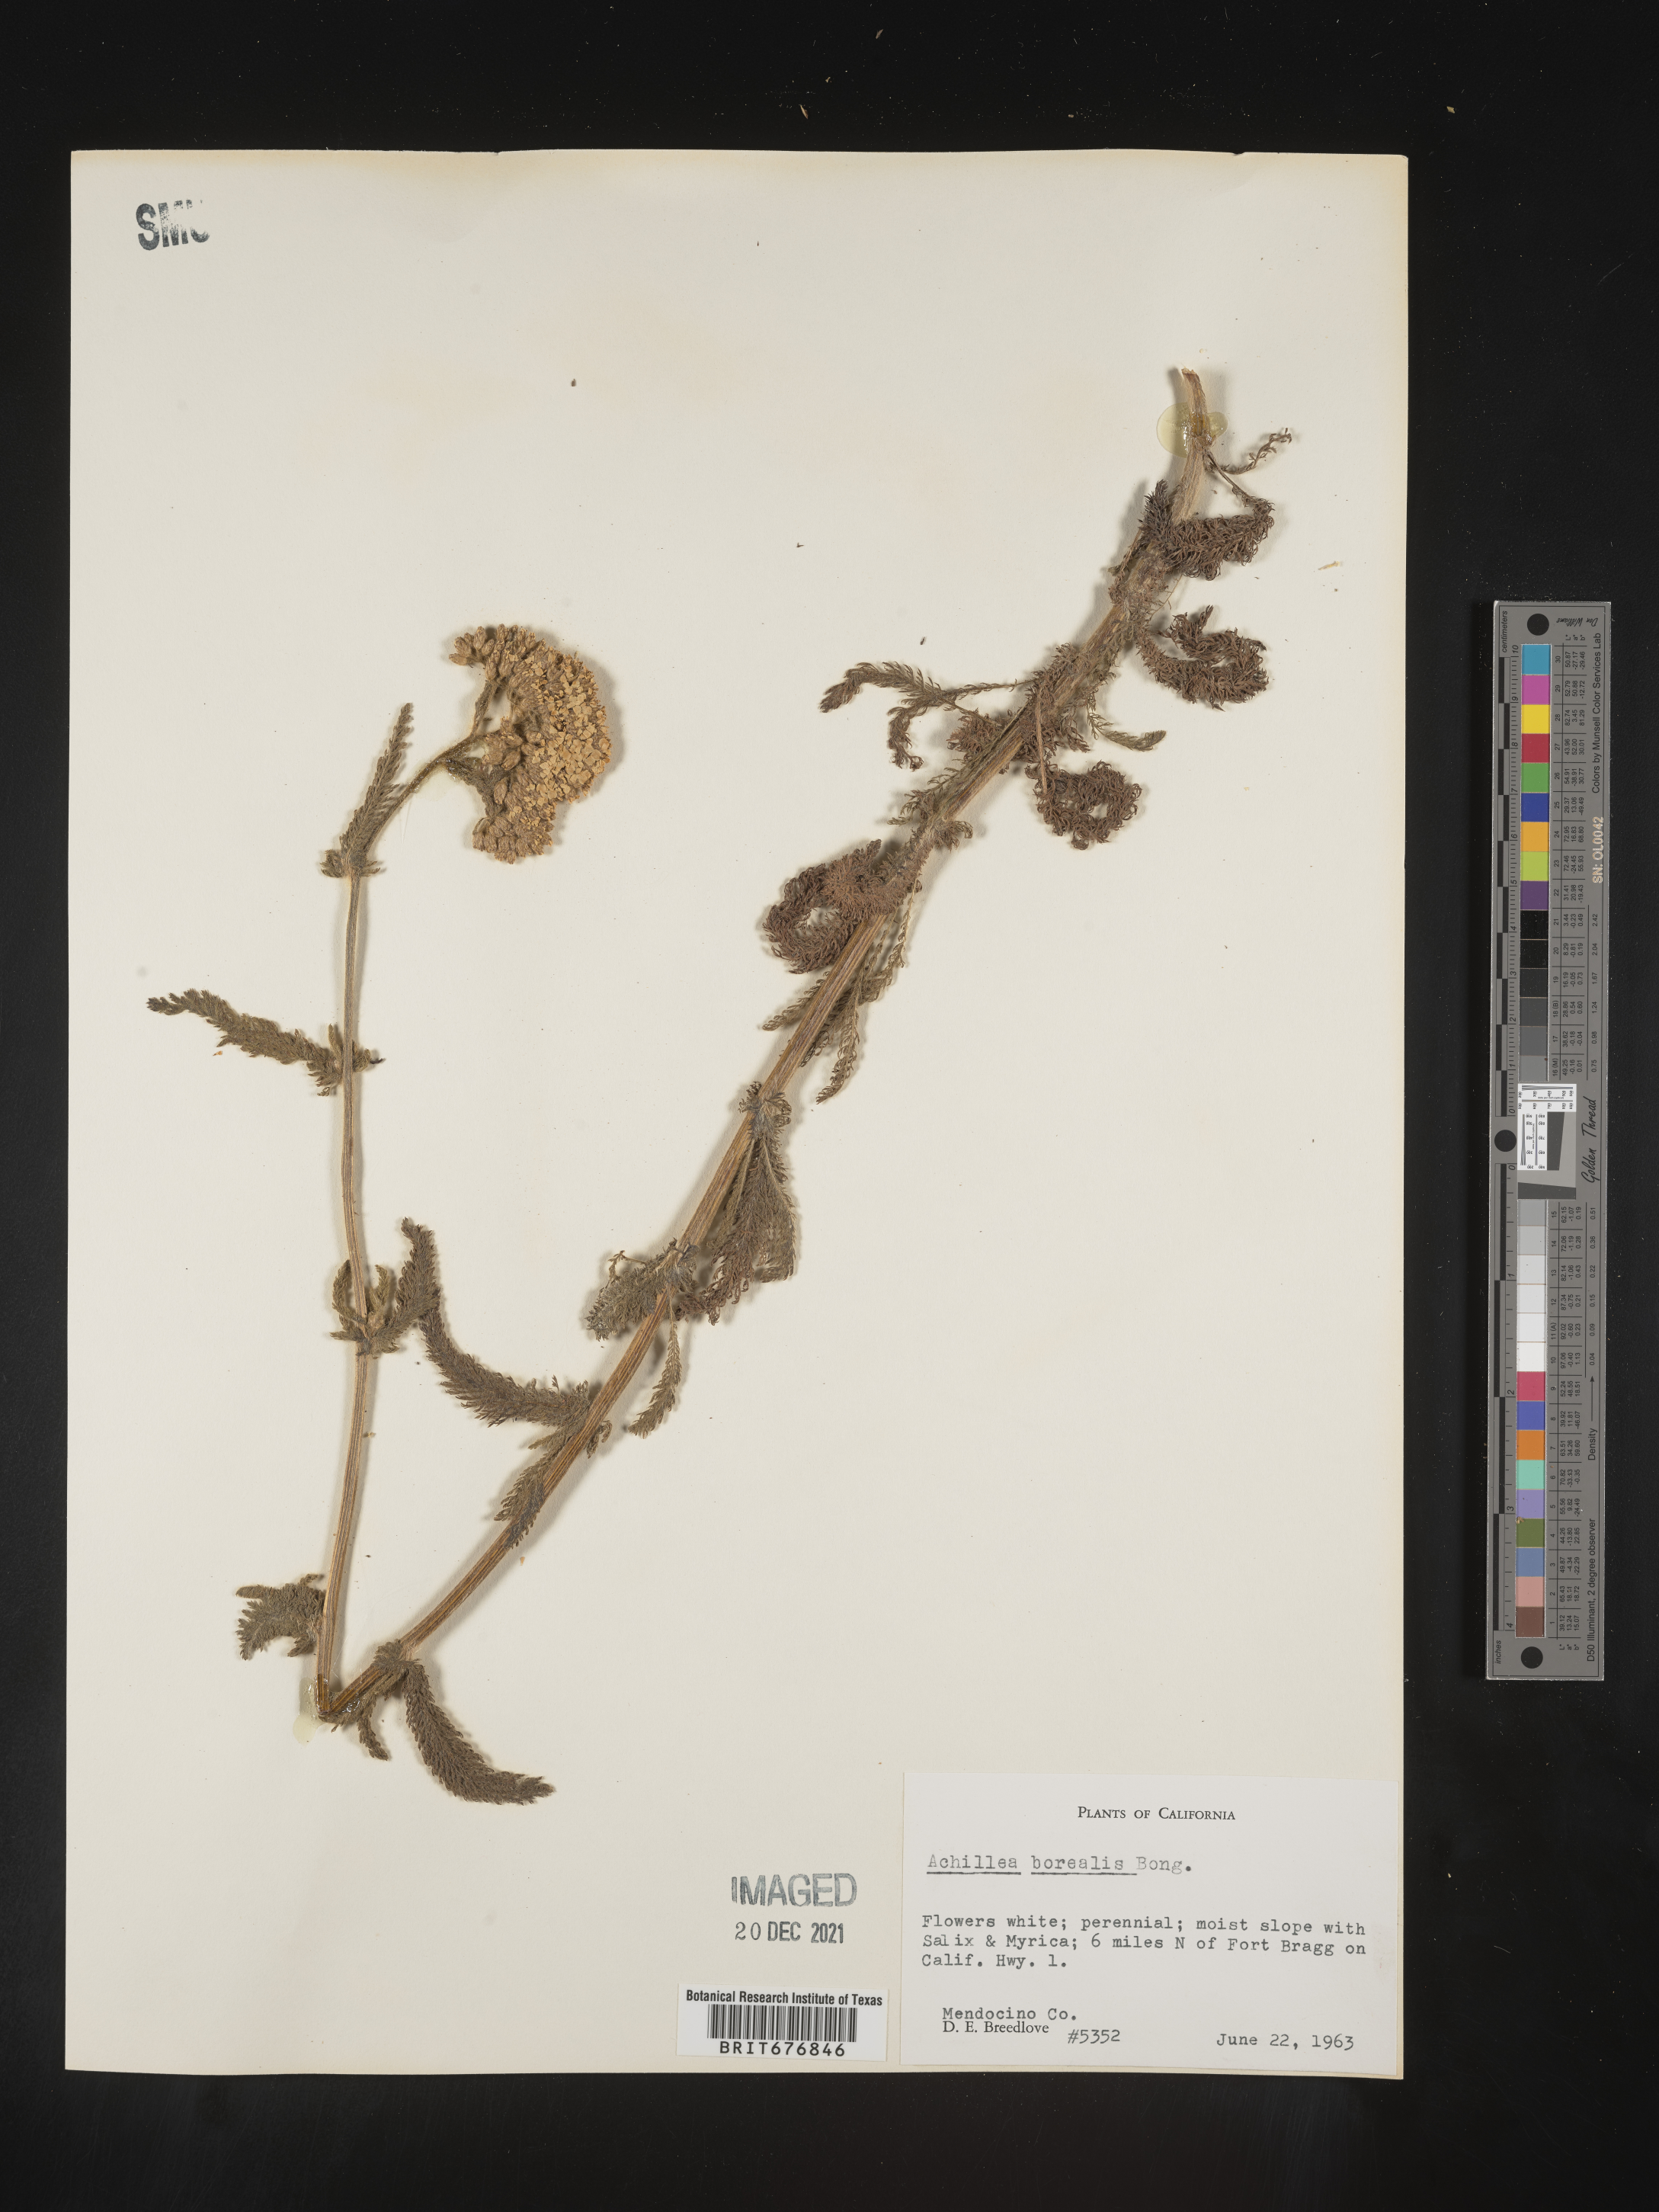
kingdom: Plantae
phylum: Tracheophyta
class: Magnoliopsida
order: Asterales
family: Asteraceae
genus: Achillea
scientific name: Achillea
